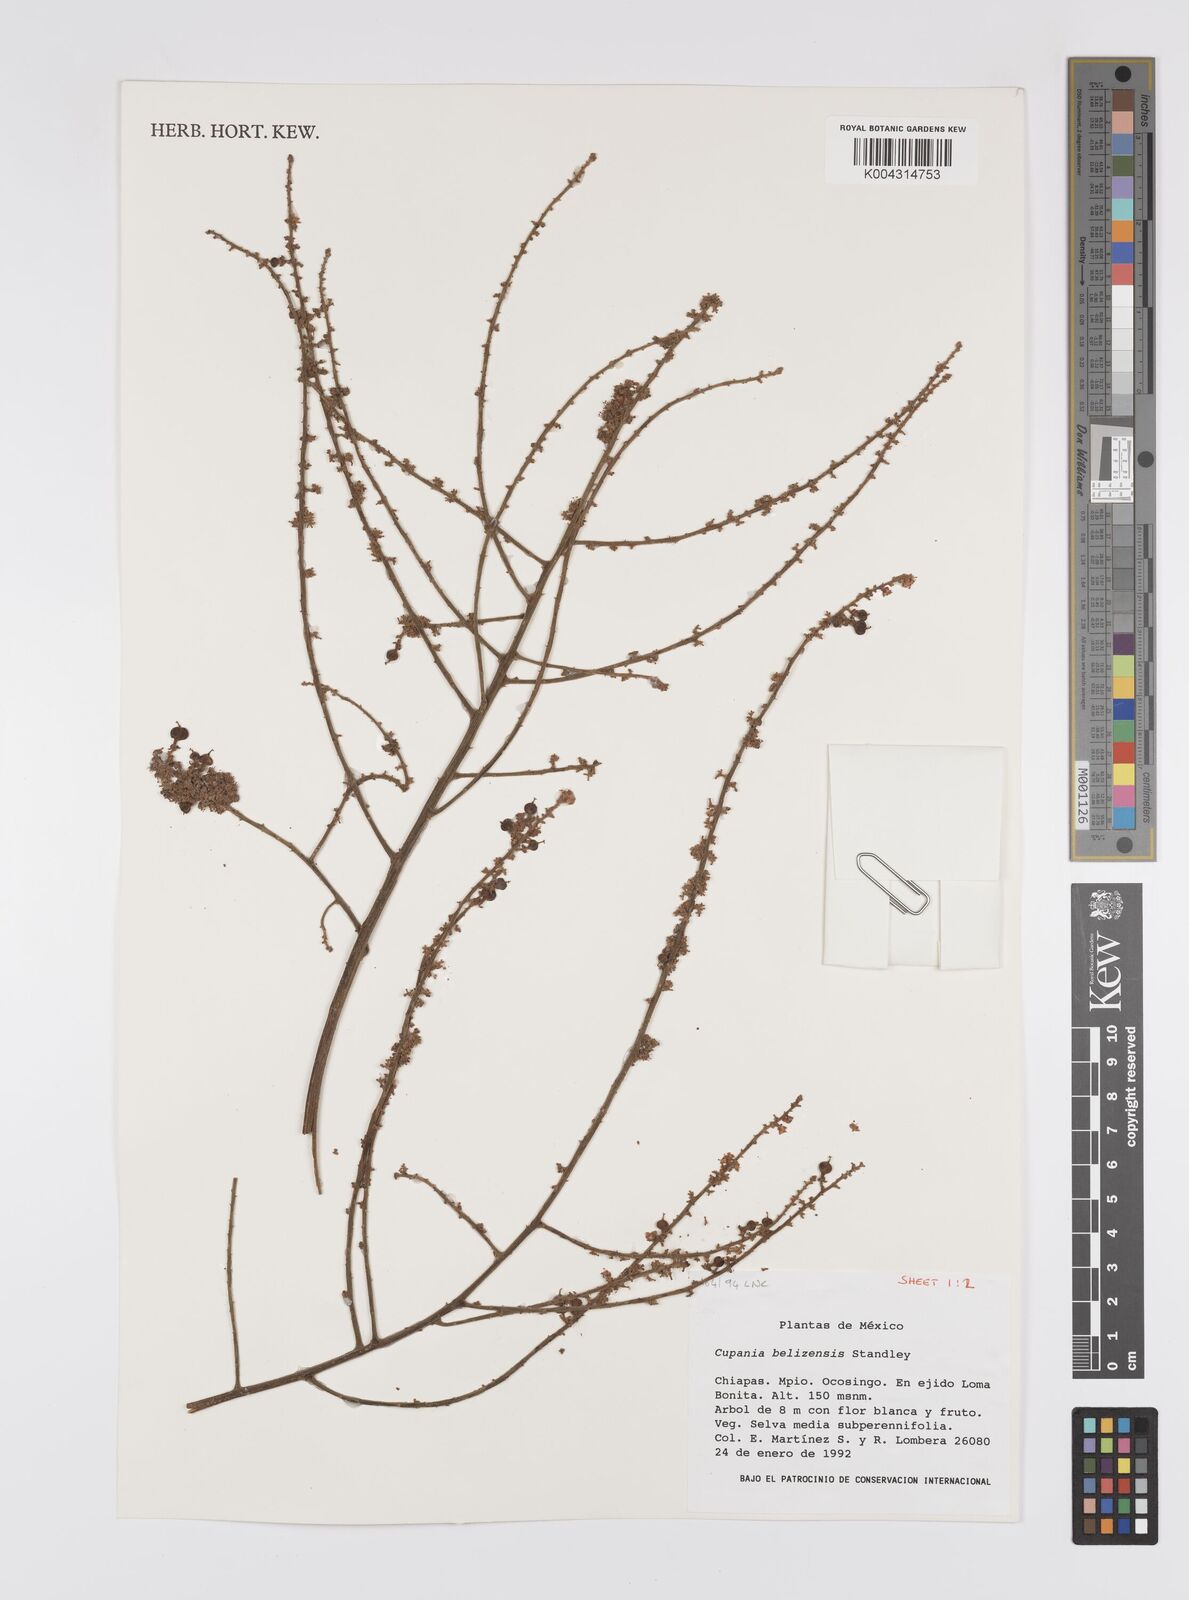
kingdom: Plantae
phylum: Tracheophyta
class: Magnoliopsida
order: Sapindales
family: Sapindaceae
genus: Cupania
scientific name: Cupania belizensis
